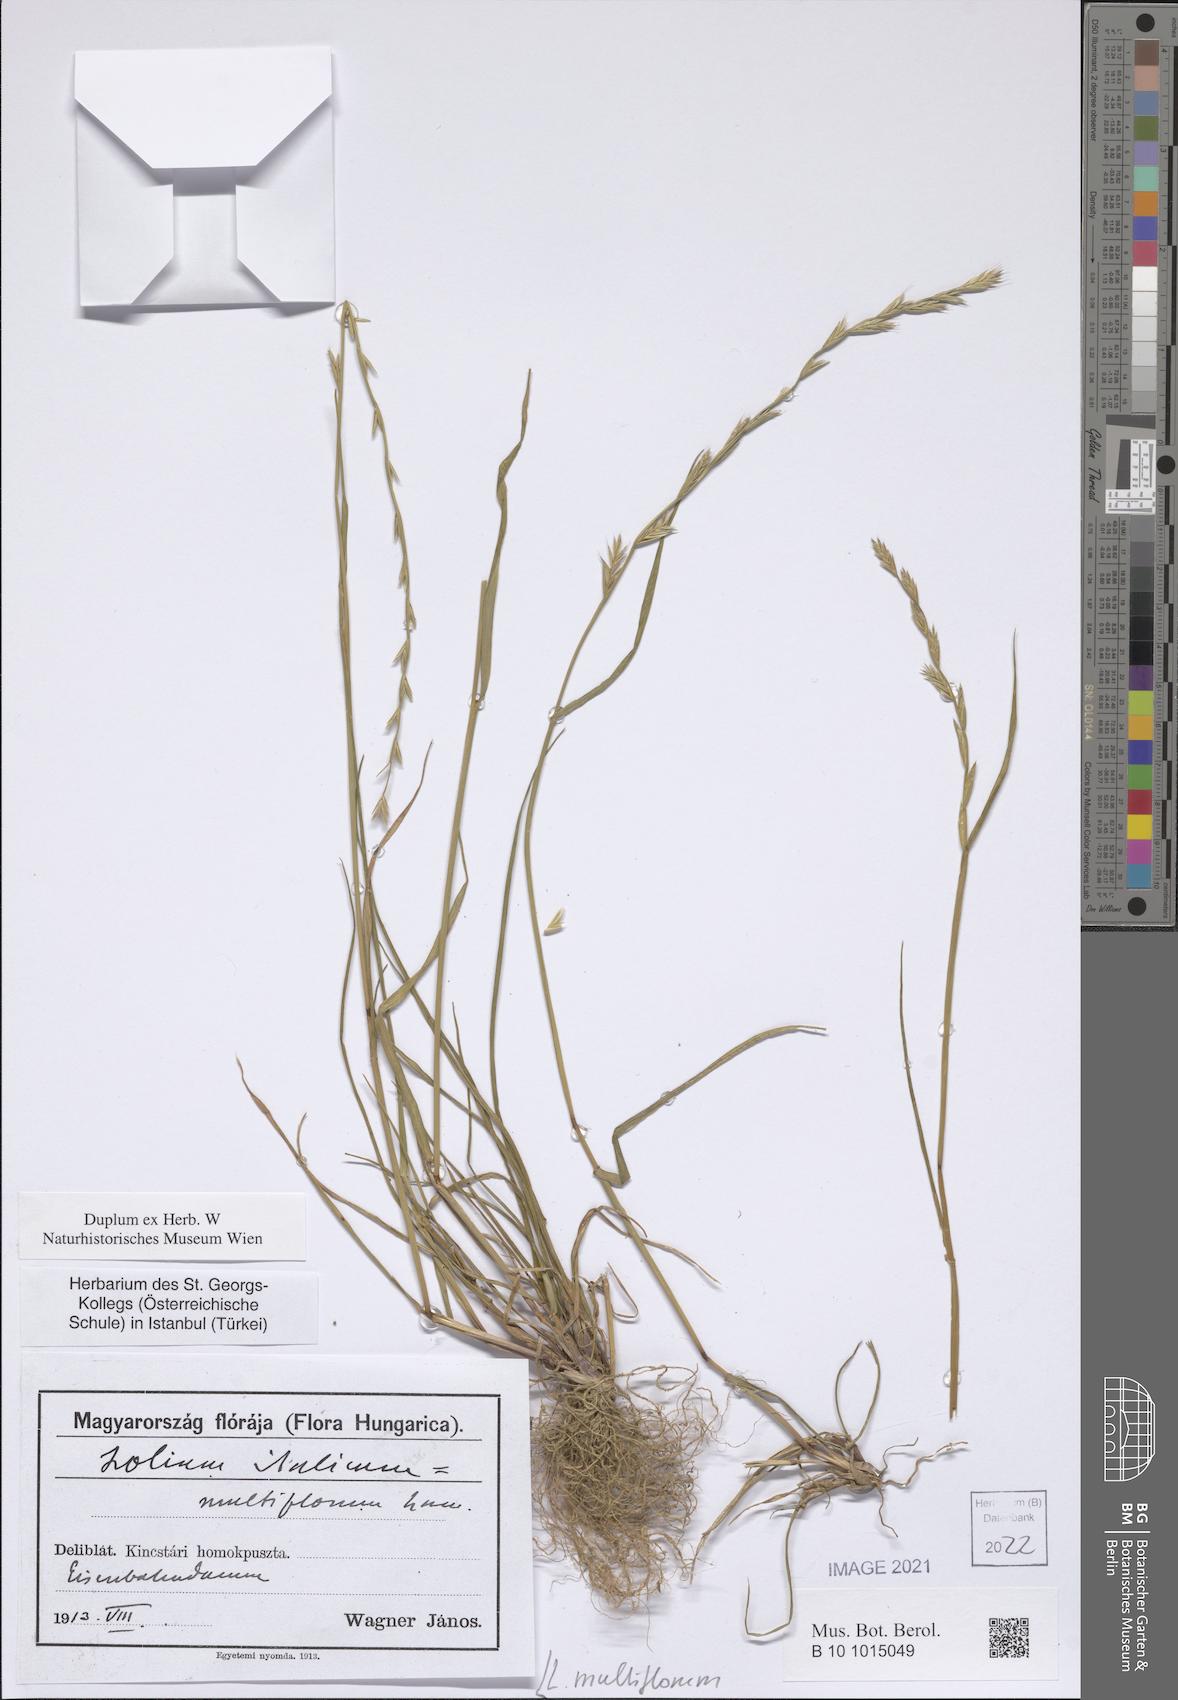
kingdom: Plantae
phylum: Tracheophyta
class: Liliopsida
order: Poales
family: Poaceae
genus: Lolium
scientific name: Lolium multiflorum
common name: Annual ryegrass
